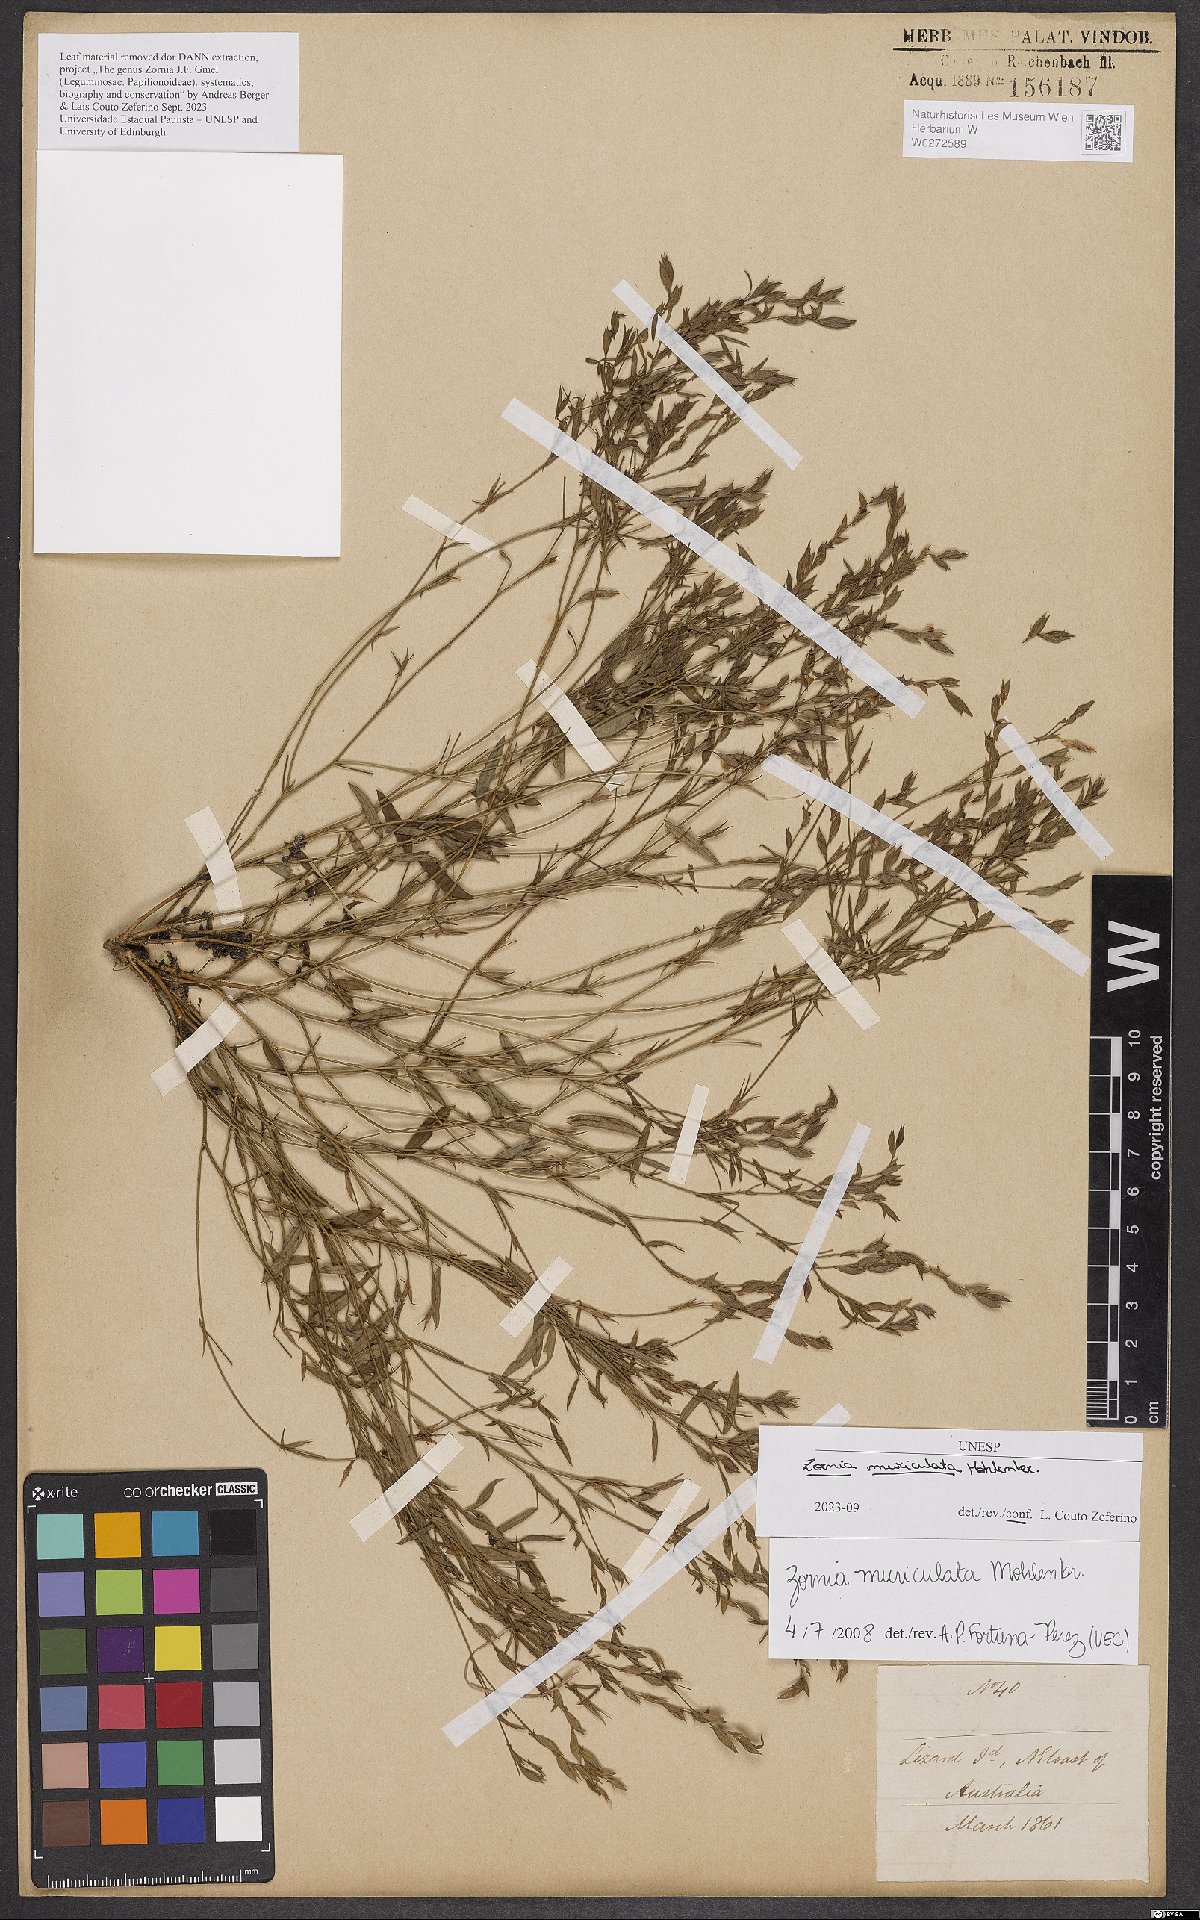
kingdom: Plantae
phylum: Tracheophyta
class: Magnoliopsida
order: Fabales
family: Fabaceae
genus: Zornia
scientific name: Zornia muriculata
